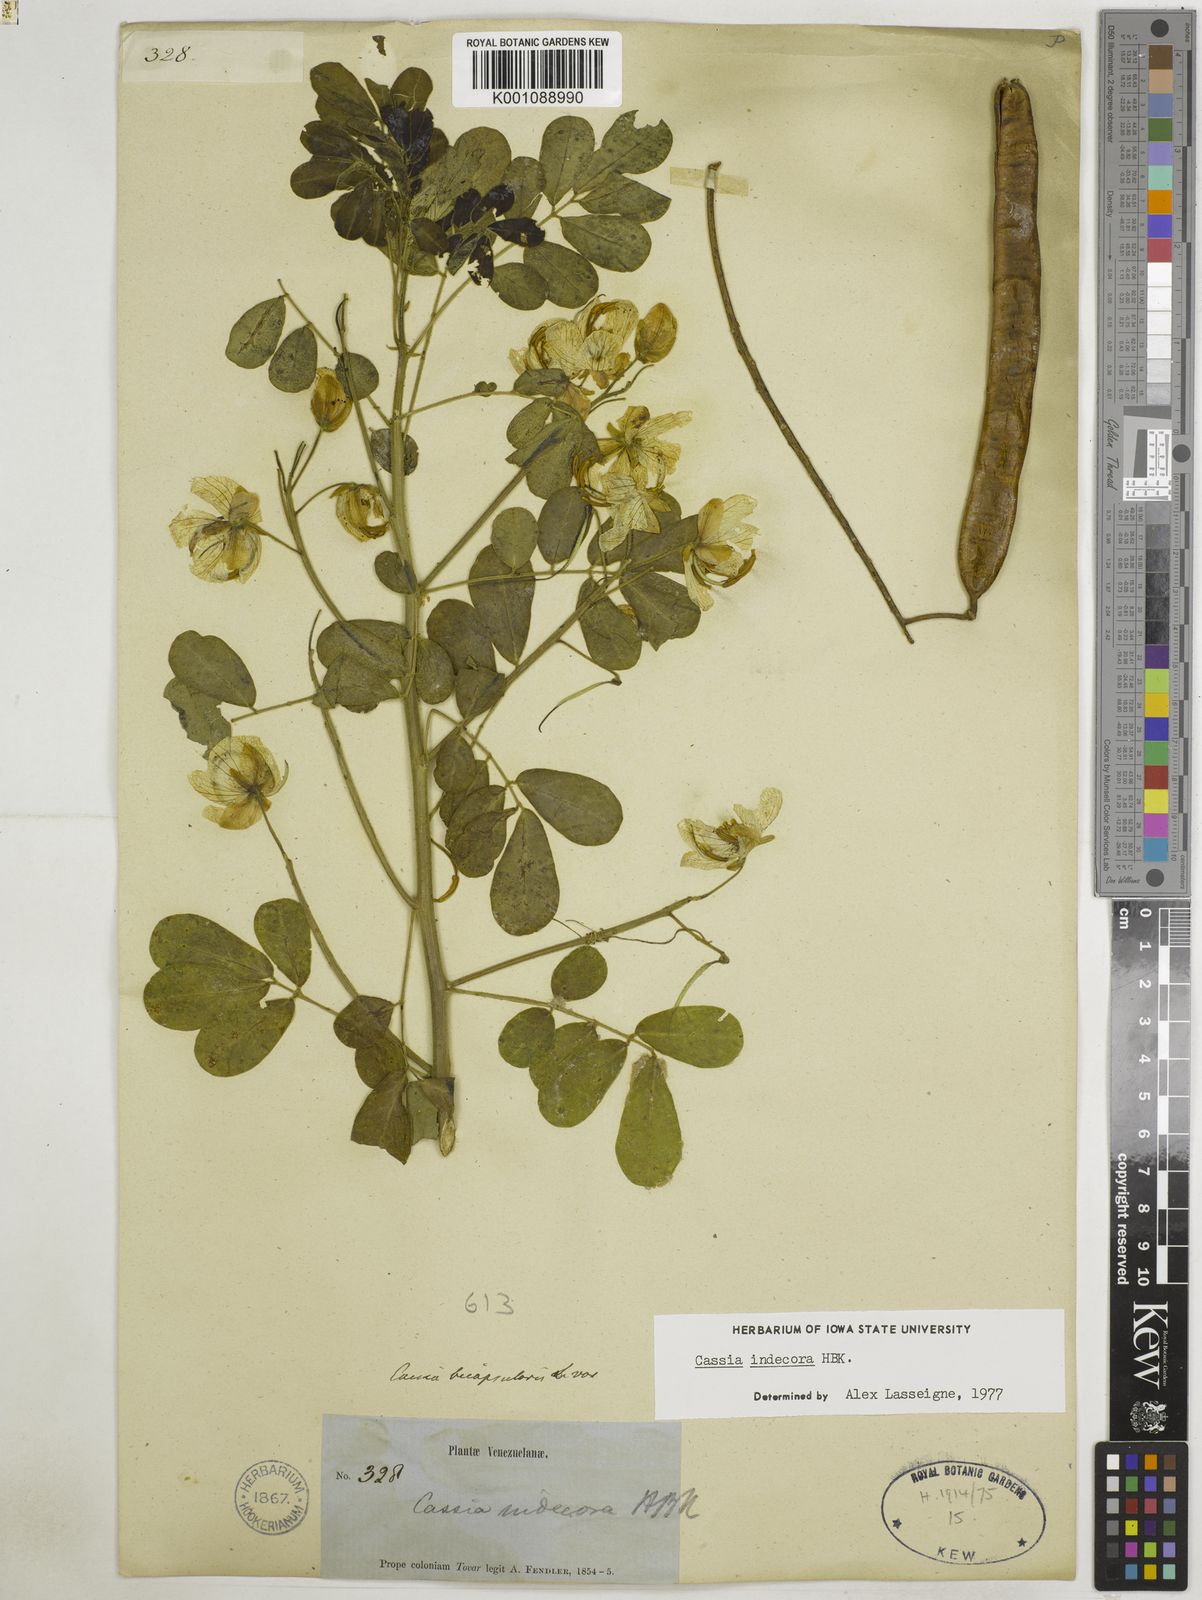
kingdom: Plantae
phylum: Tracheophyta
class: Magnoliopsida
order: Fabales
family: Fabaceae
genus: Senna
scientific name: Senna pendula
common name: Easter cassia
